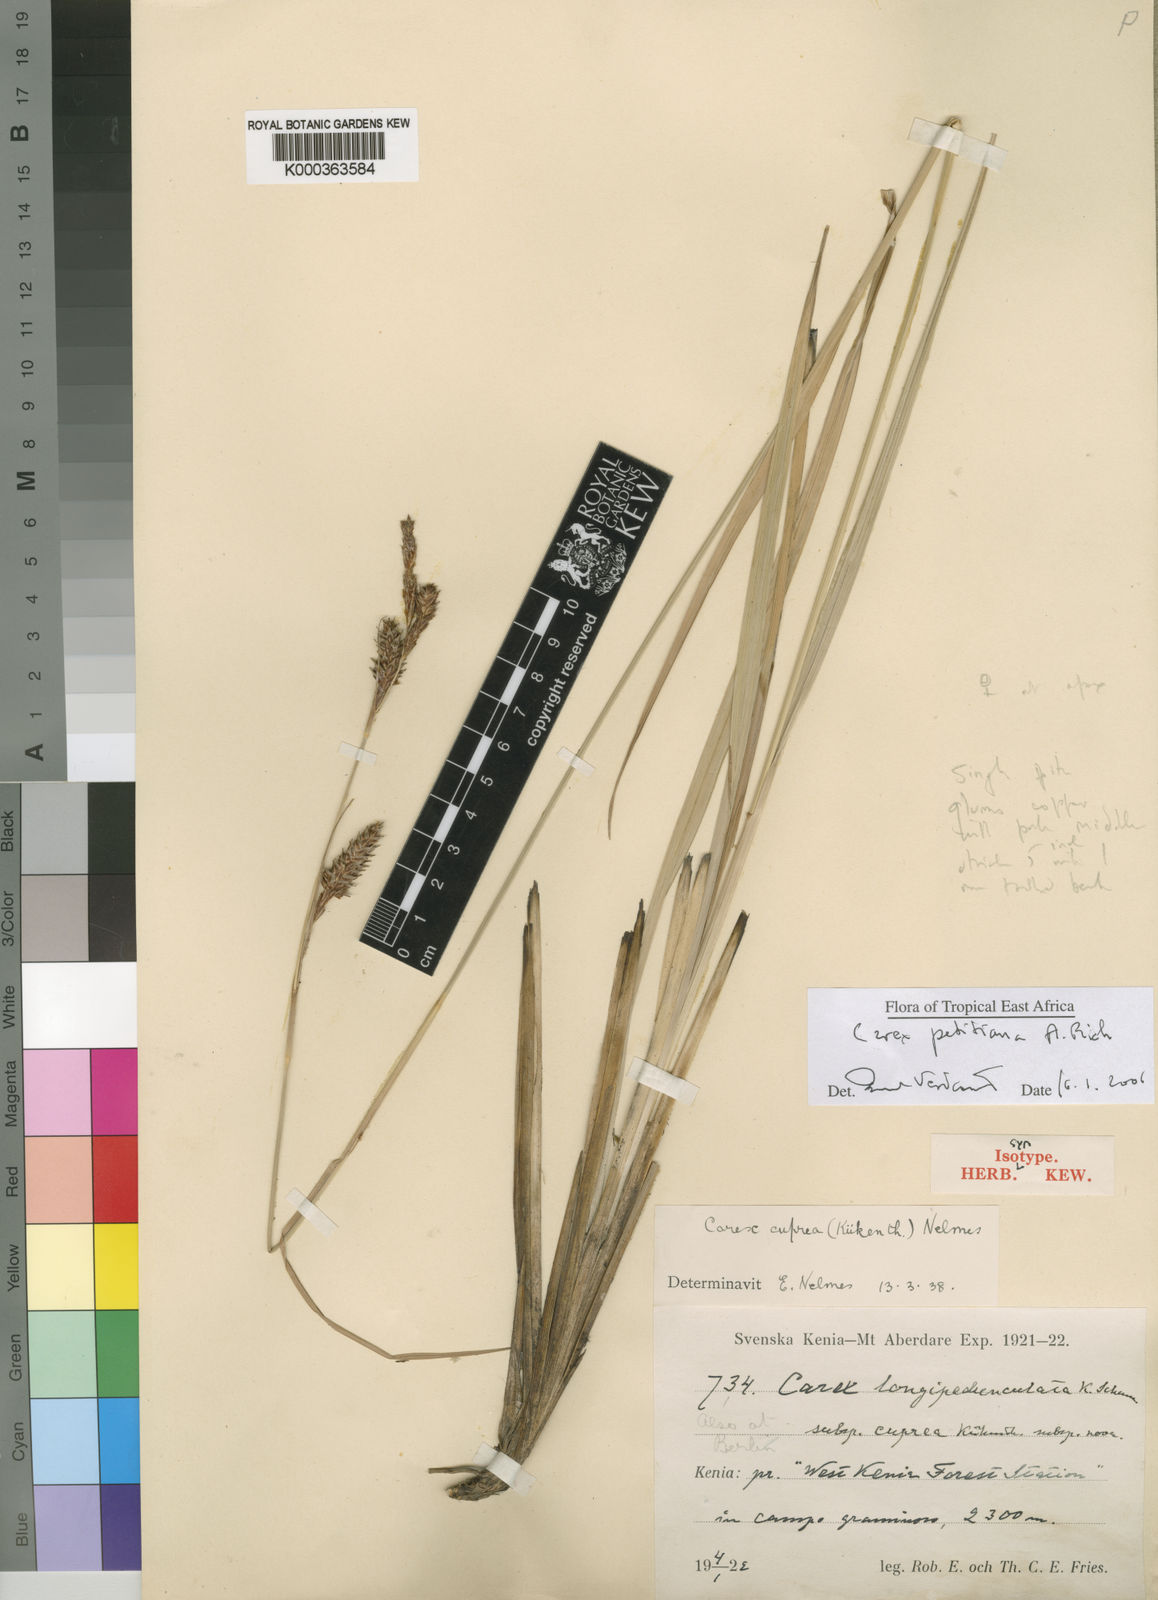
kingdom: Plantae
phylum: Tracheophyta
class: Liliopsida
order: Poales
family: Cyperaceae
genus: Carex
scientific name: Carex
